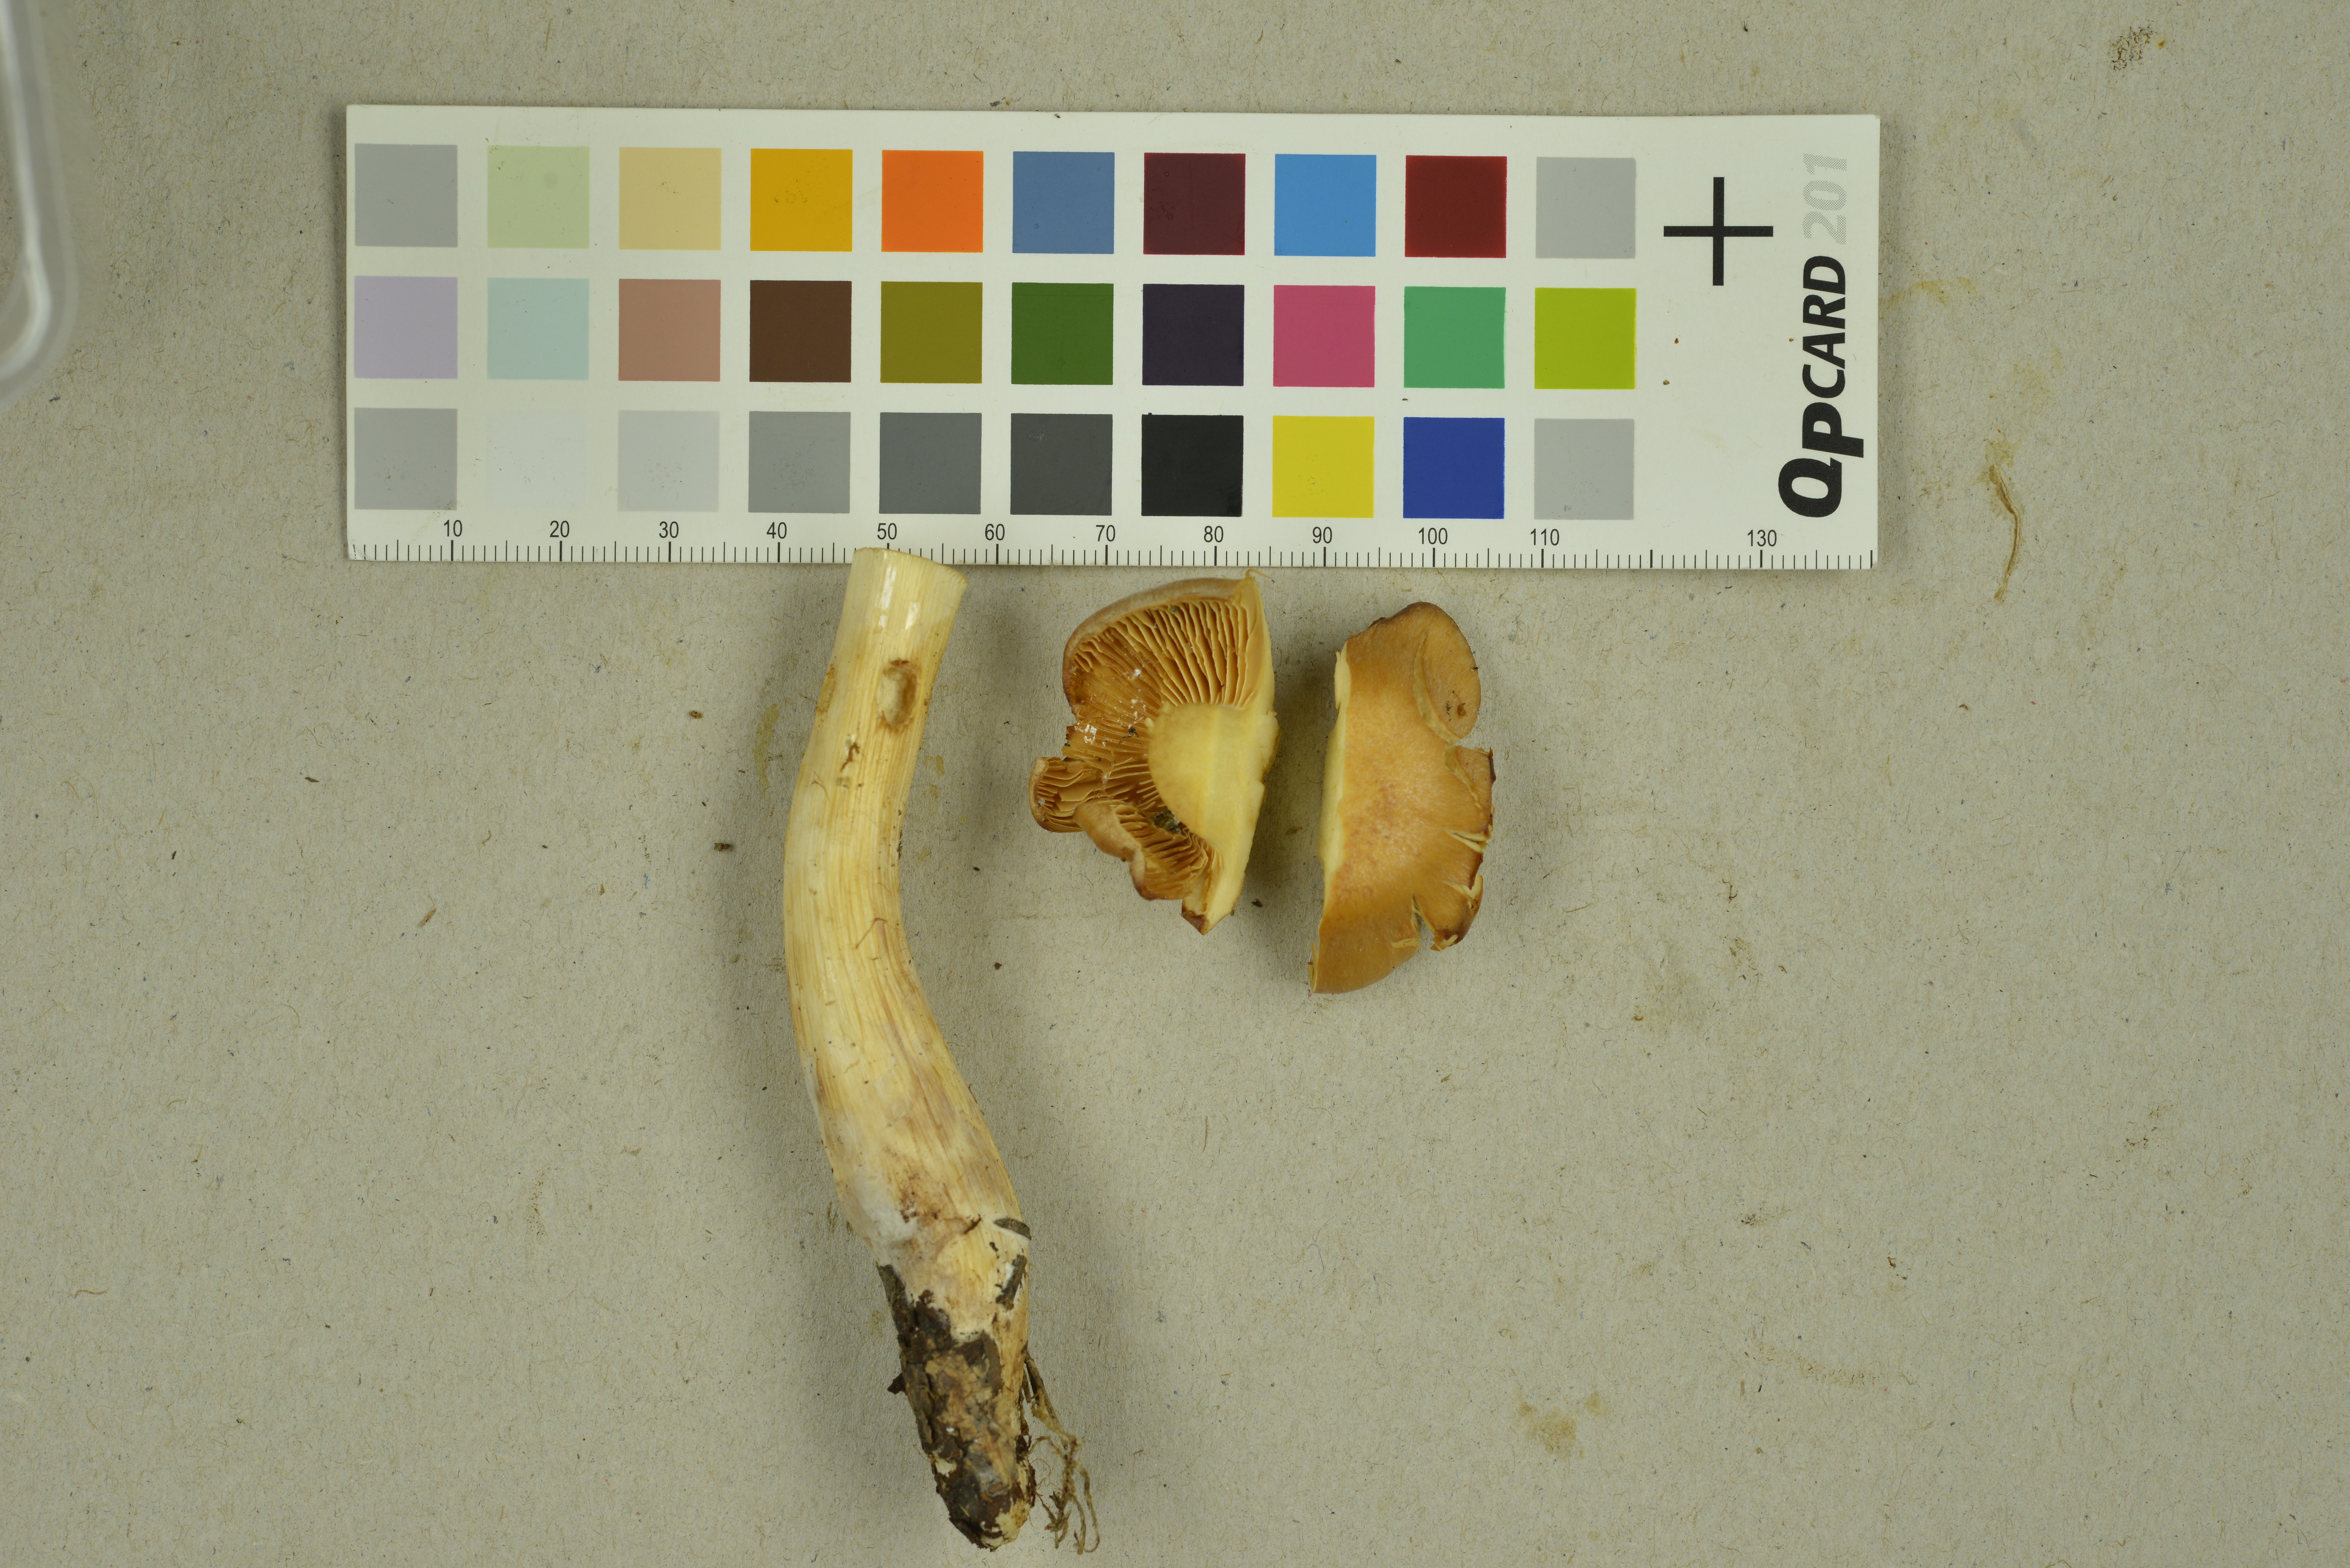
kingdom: Fungi
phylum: Basidiomycota
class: Agaricomycetes
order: Agaricales
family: Cortinariaceae
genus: Mystinarius
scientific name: Mystinarius lustrabilis
